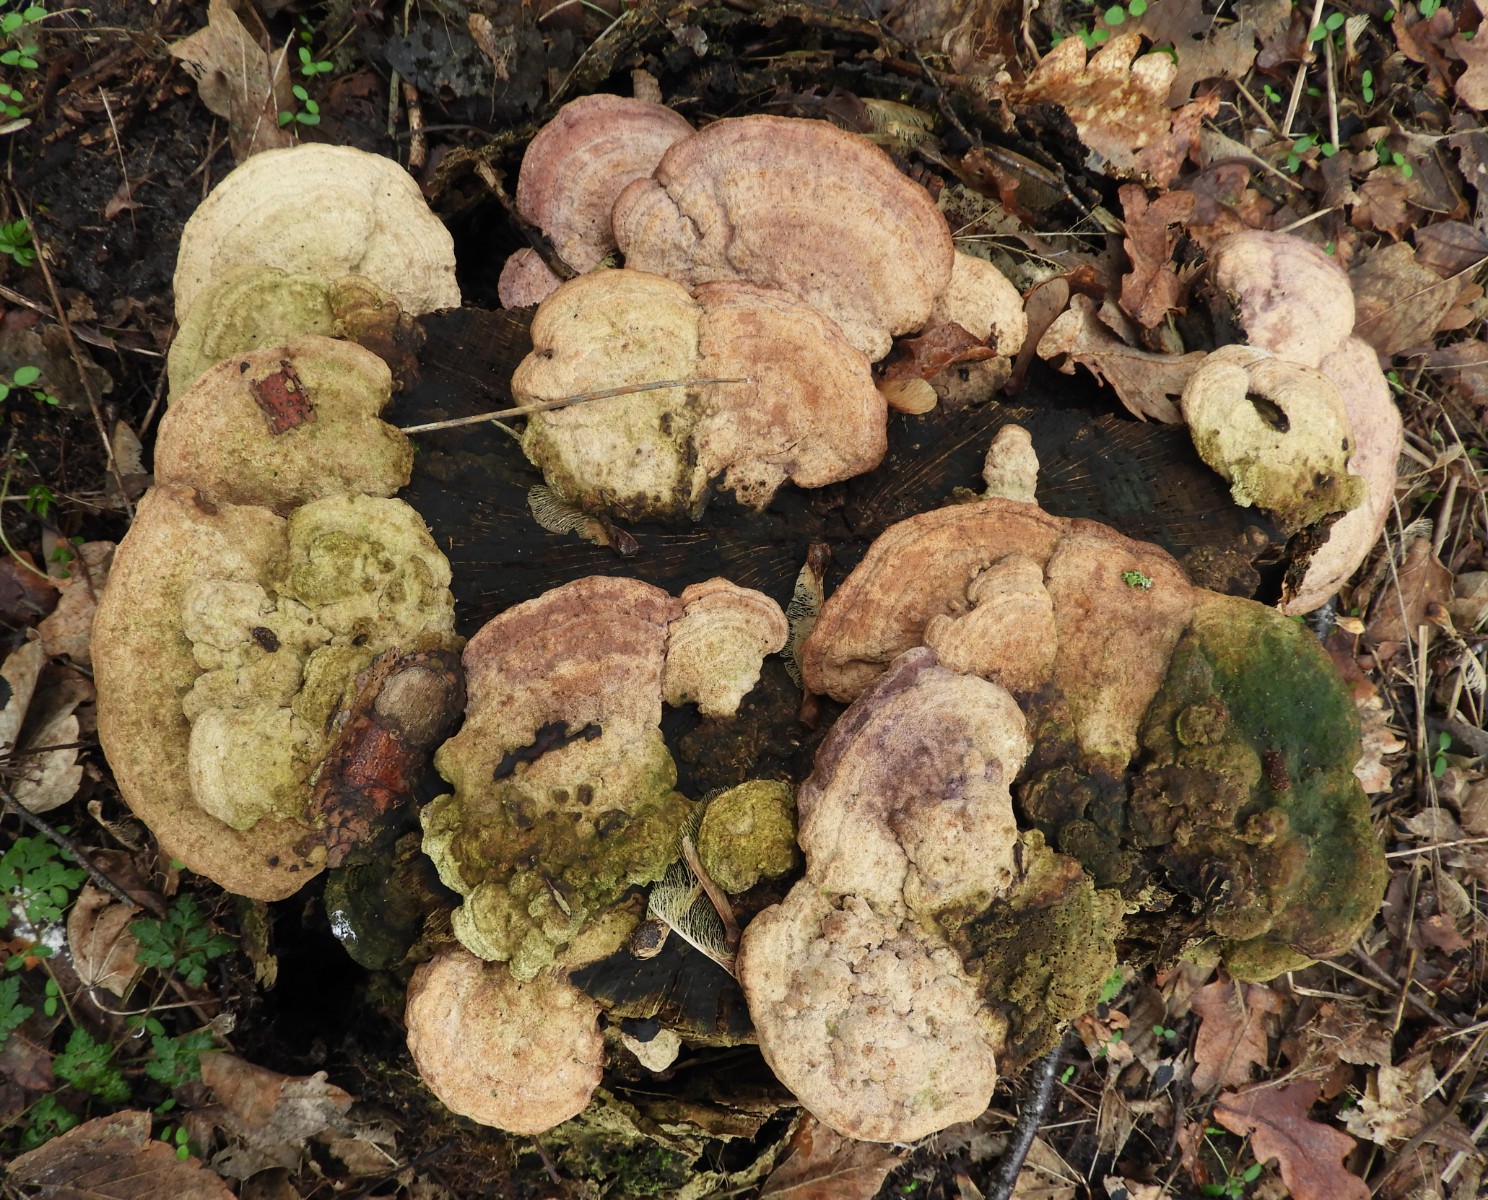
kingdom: Fungi
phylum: Basidiomycota
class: Agaricomycetes
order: Polyporales
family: Fomitopsidaceae
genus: Daedalea
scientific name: Daedalea quercina
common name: ege-labyrintsvamp
